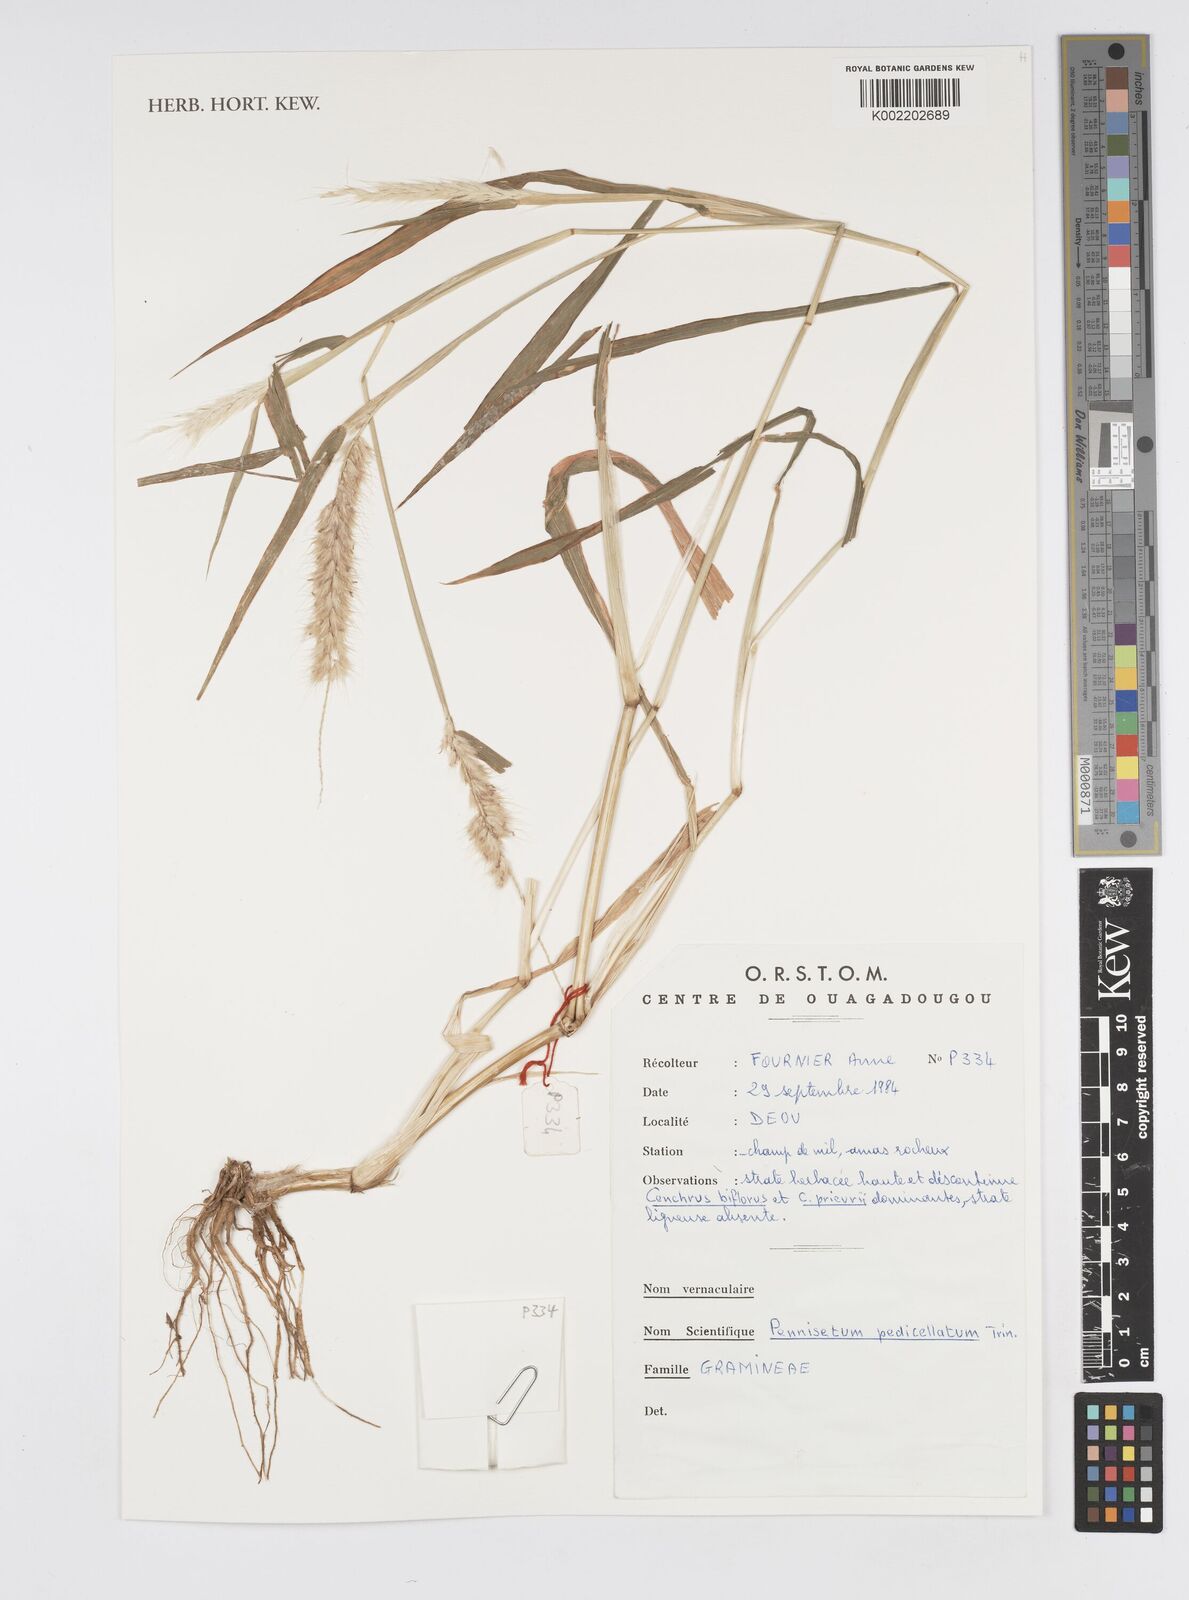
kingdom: Plantae
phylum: Tracheophyta
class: Liliopsida
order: Poales
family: Poaceae
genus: Cenchrus
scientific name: Cenchrus pedicellatus
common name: Hairy fountain grass
